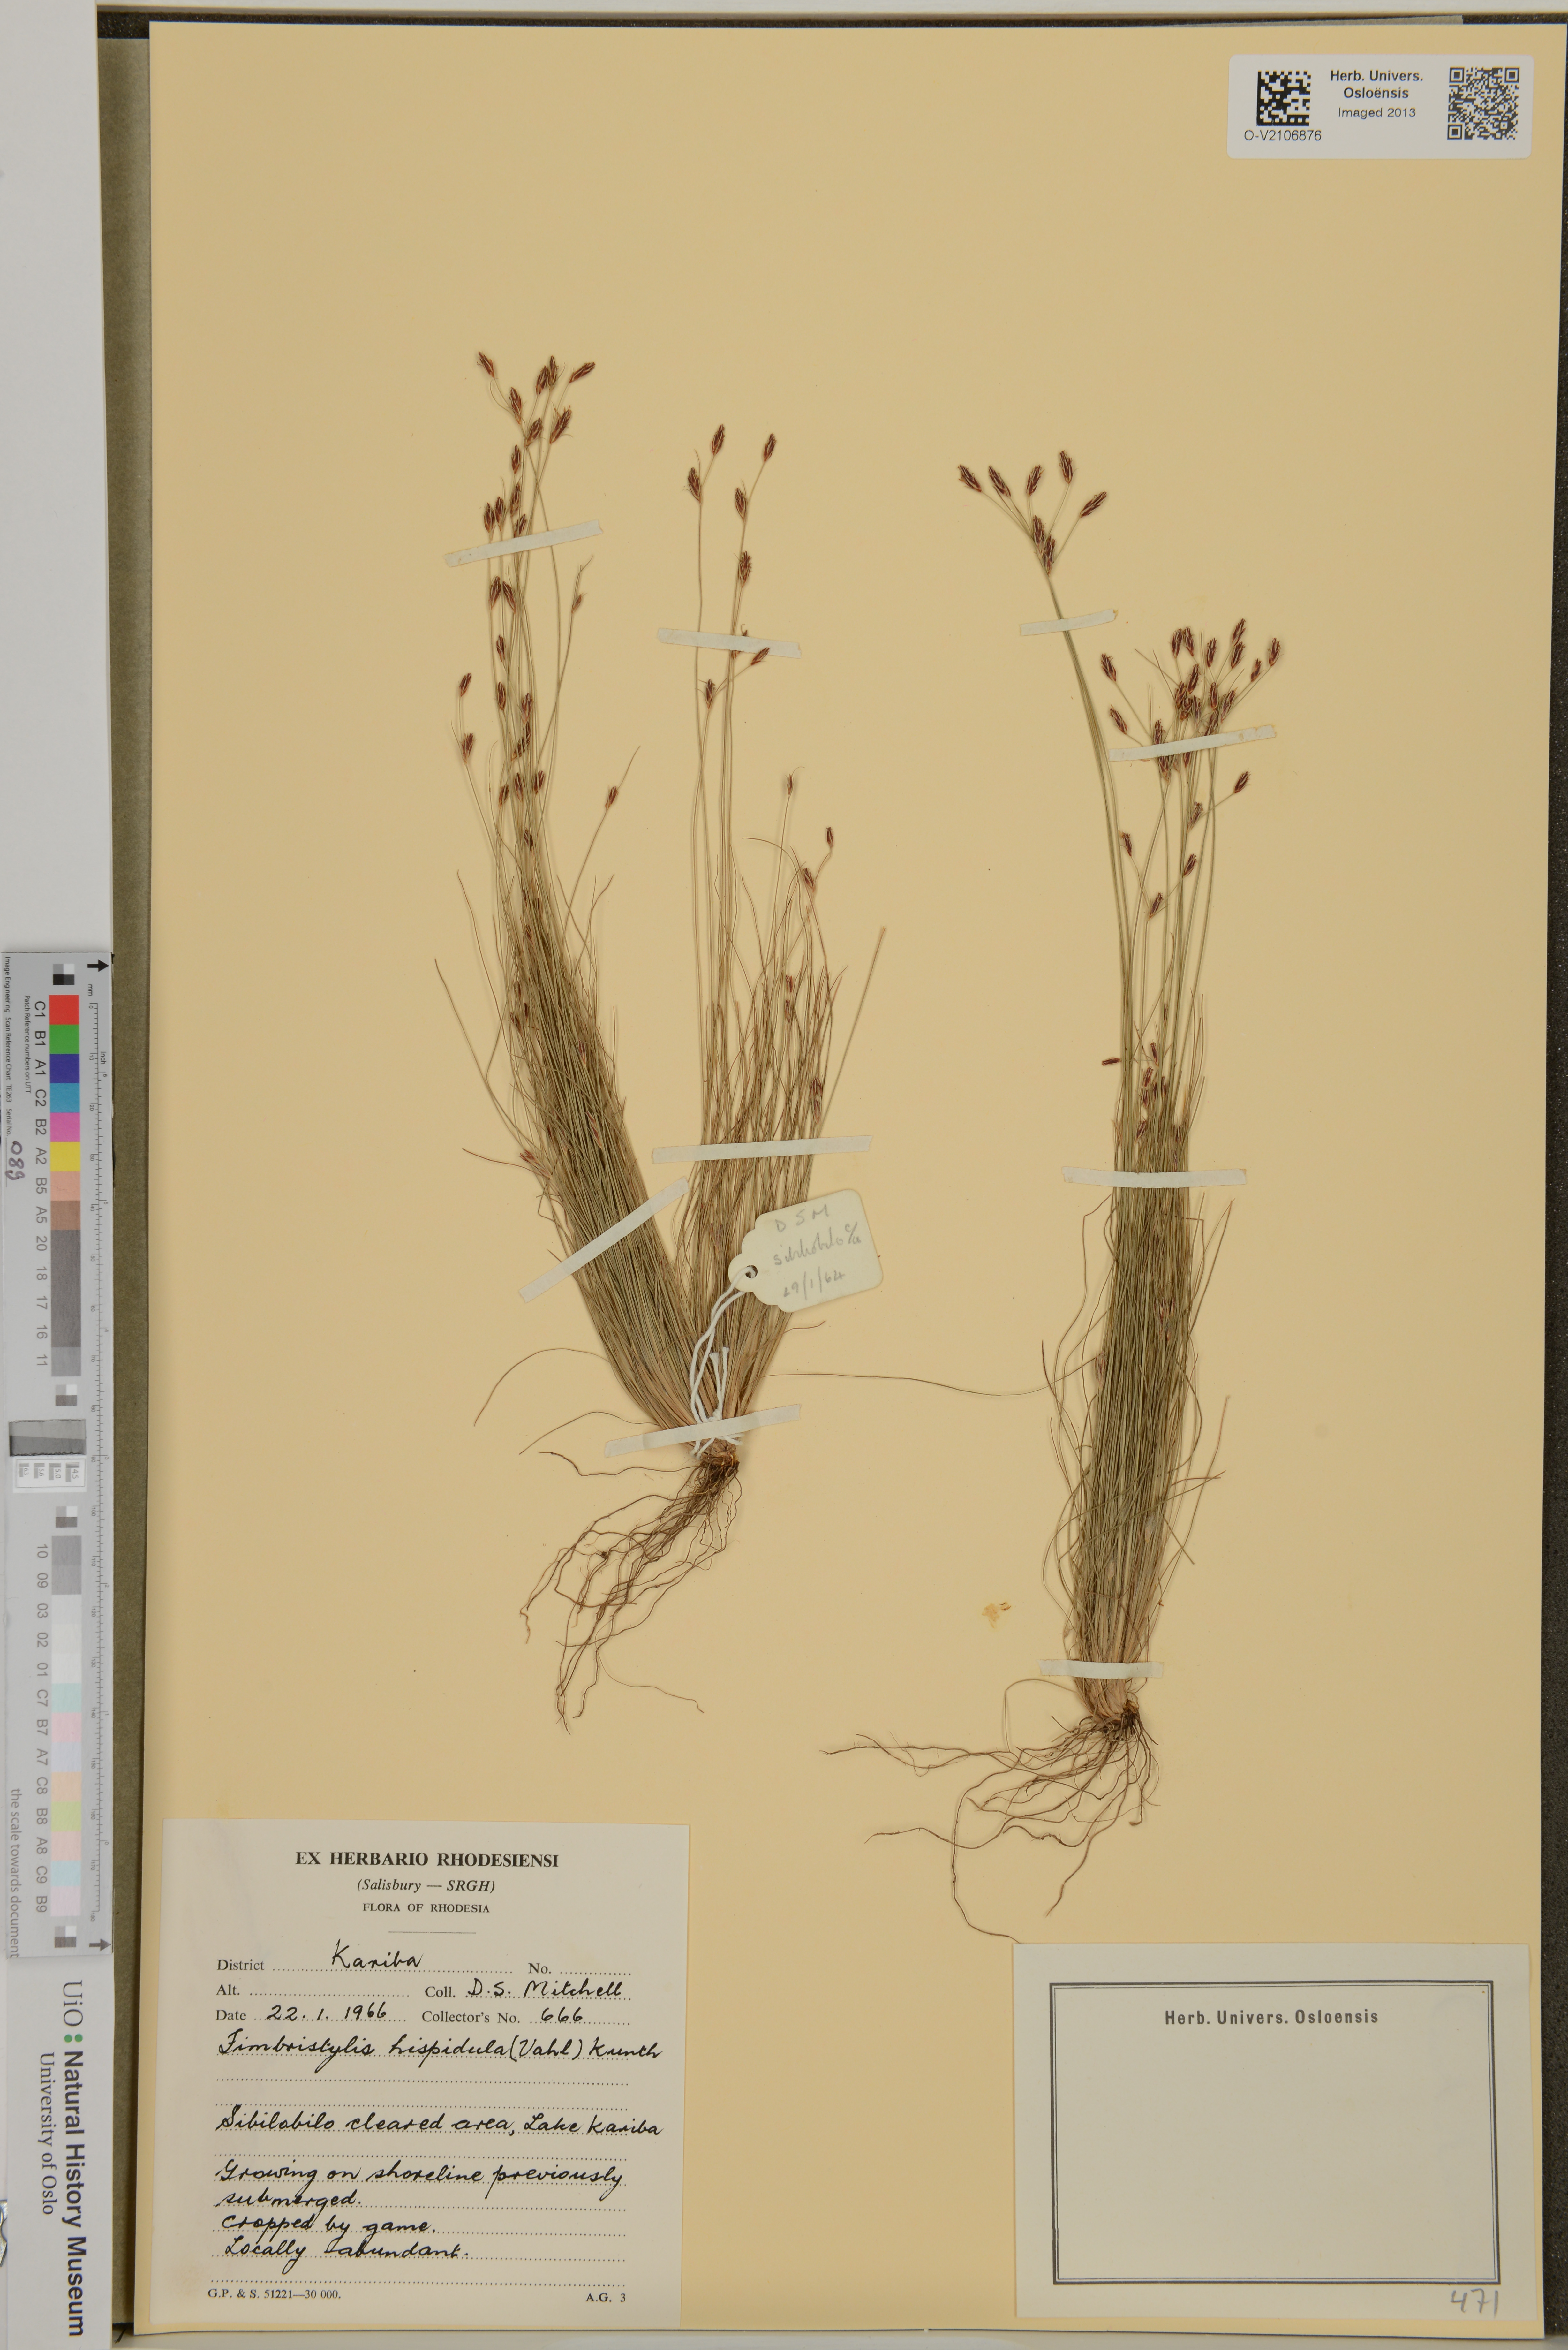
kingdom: Plantae
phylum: Tracheophyta
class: Liliopsida
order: Poales
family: Cyperaceae
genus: Bulbostylis
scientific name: Bulbostylis hispidula
